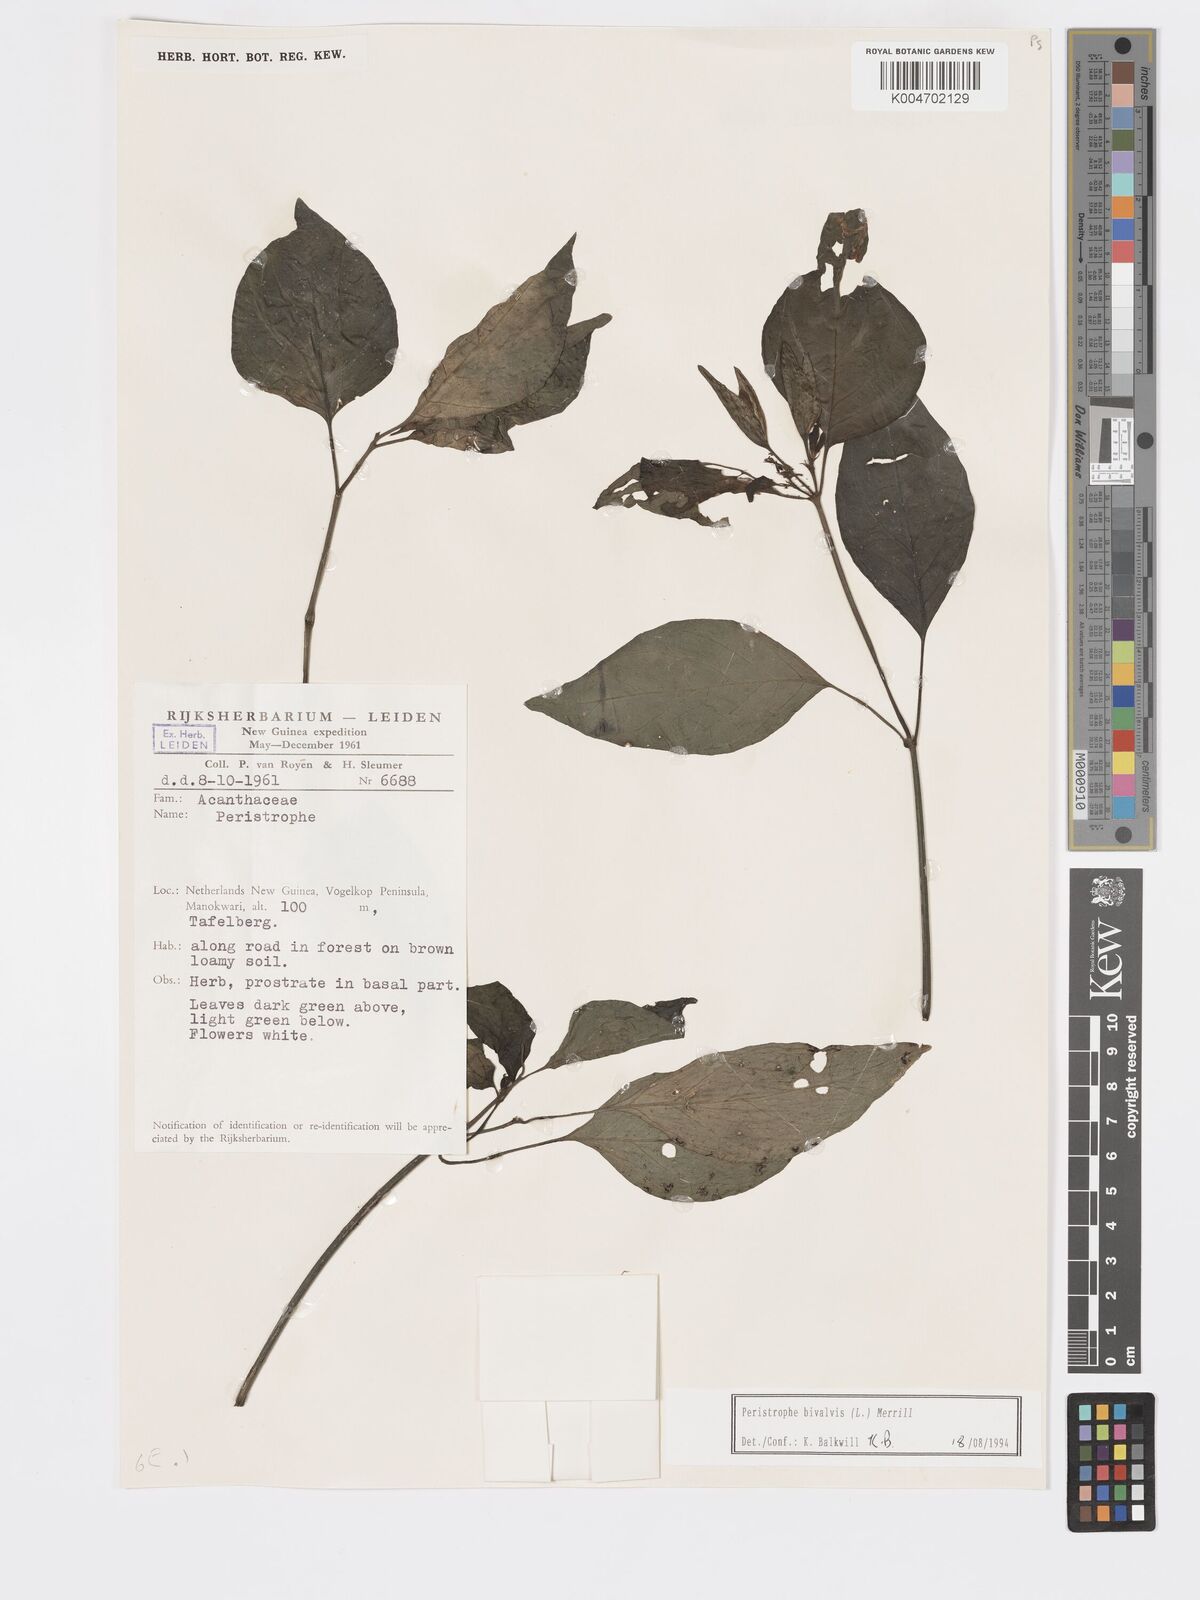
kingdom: Plantae
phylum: Tracheophyta
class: Magnoliopsida
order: Lamiales
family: Acanthaceae
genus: Dicliptera
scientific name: Dicliptera
